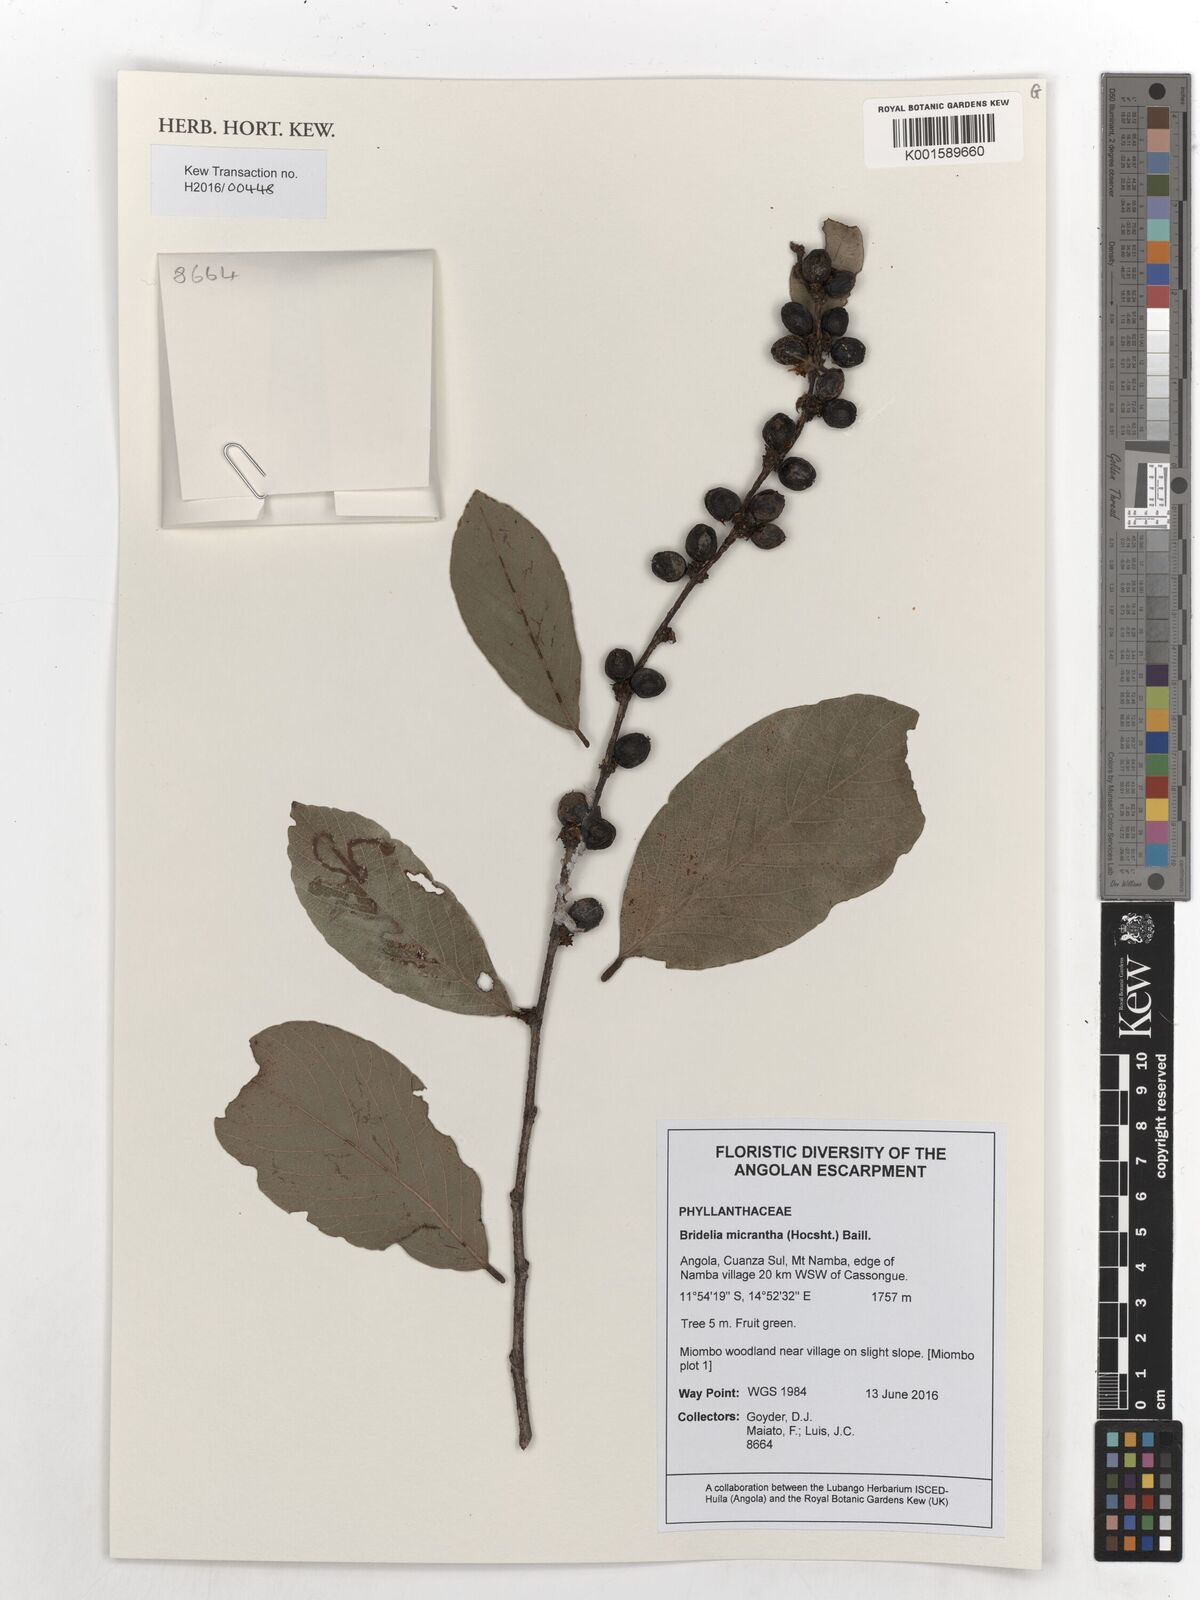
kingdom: Plantae
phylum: Tracheophyta
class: Magnoliopsida
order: Malpighiales
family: Phyllanthaceae
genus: Bridelia
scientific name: Bridelia micrantha
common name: Bridelia
